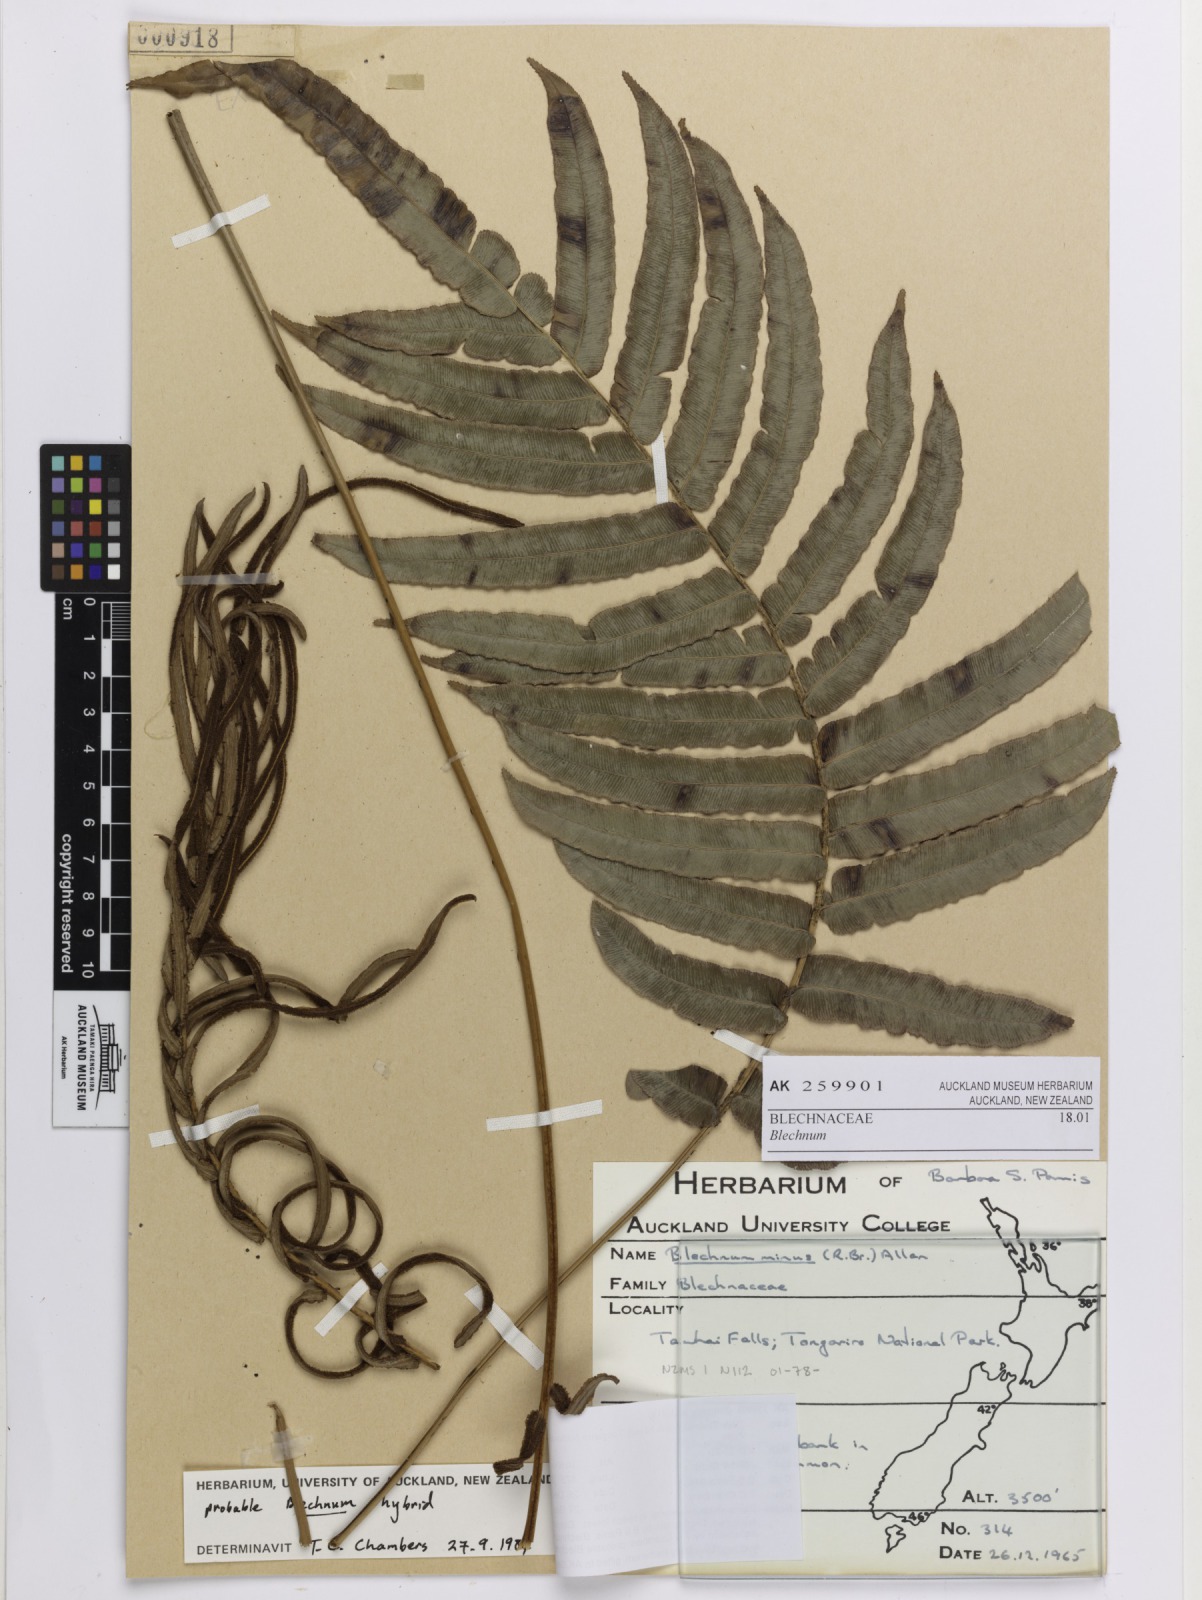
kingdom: Plantae
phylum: Tracheophyta
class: Polypodiopsida
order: Polypodiales
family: Blechnaceae
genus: Blechnum
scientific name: Blechnum
